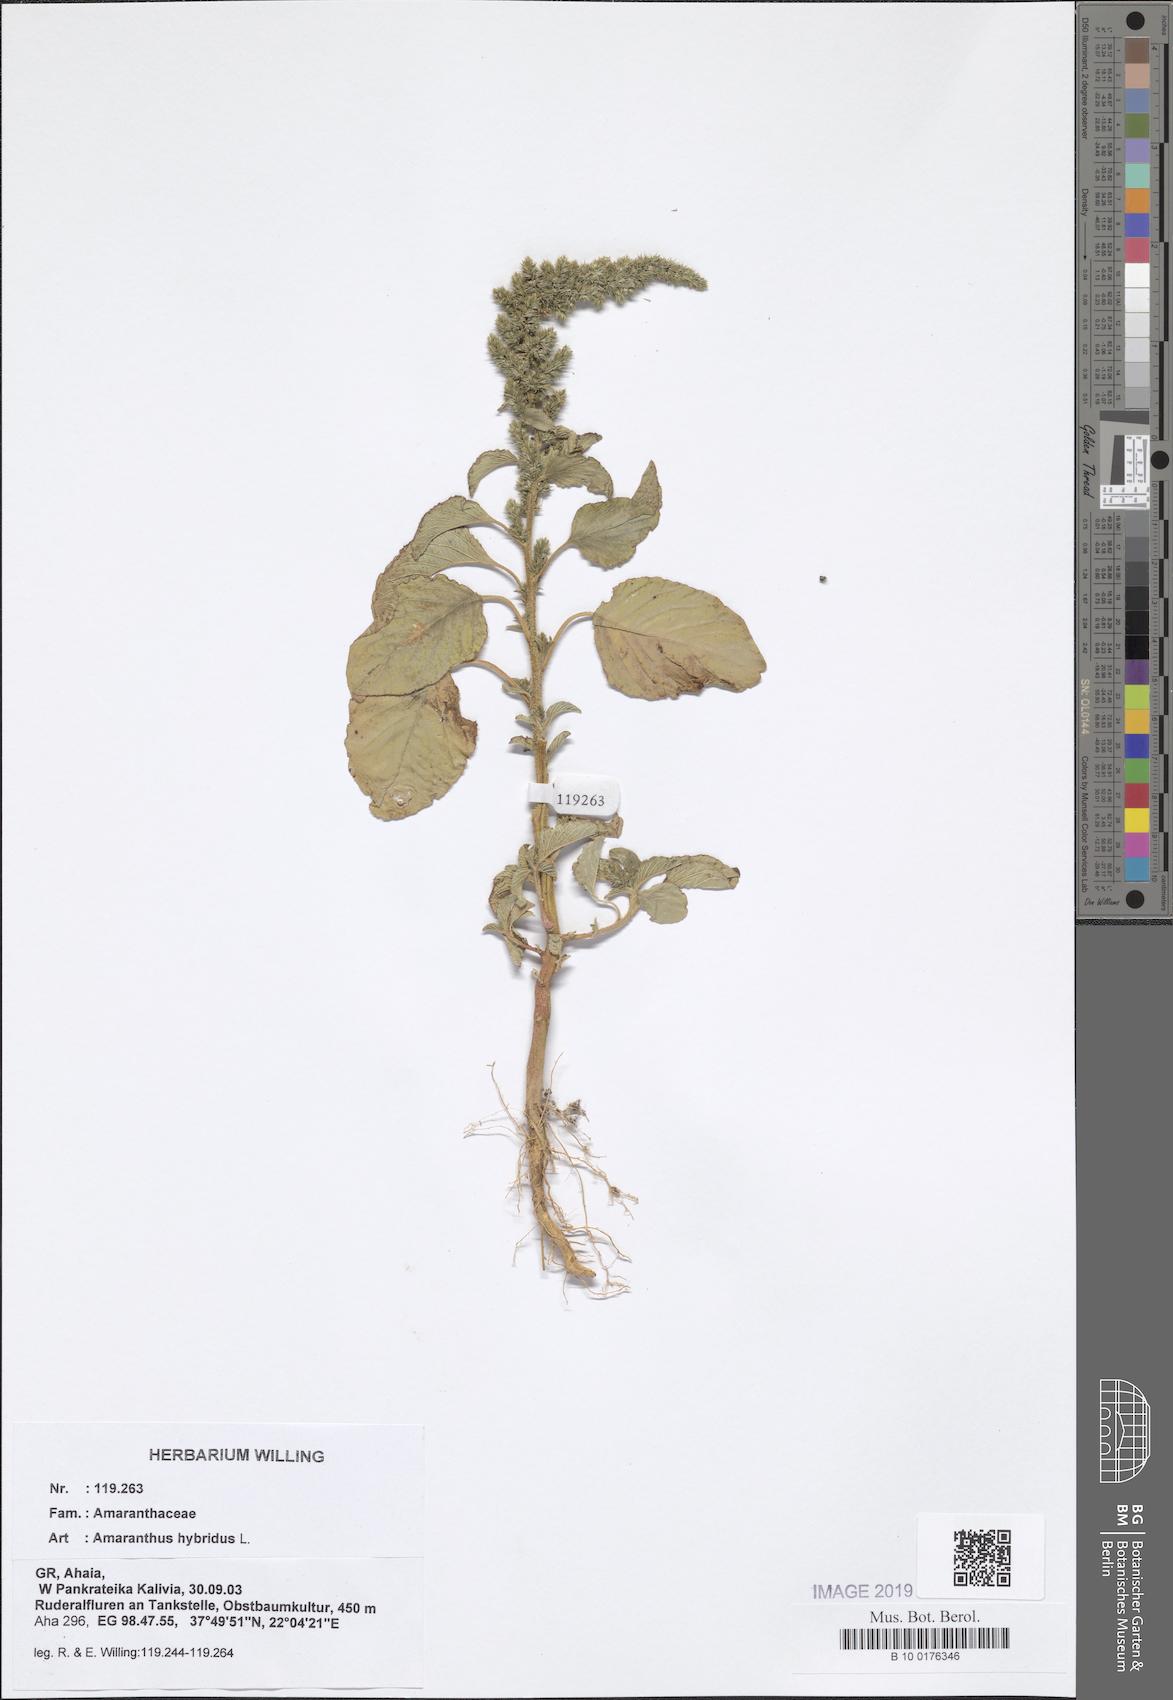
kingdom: Plantae
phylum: Tracheophyta
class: Magnoliopsida
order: Caryophyllales
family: Amaranthaceae
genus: Amaranthus
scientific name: Amaranthus hybridus
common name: Green amaranth
